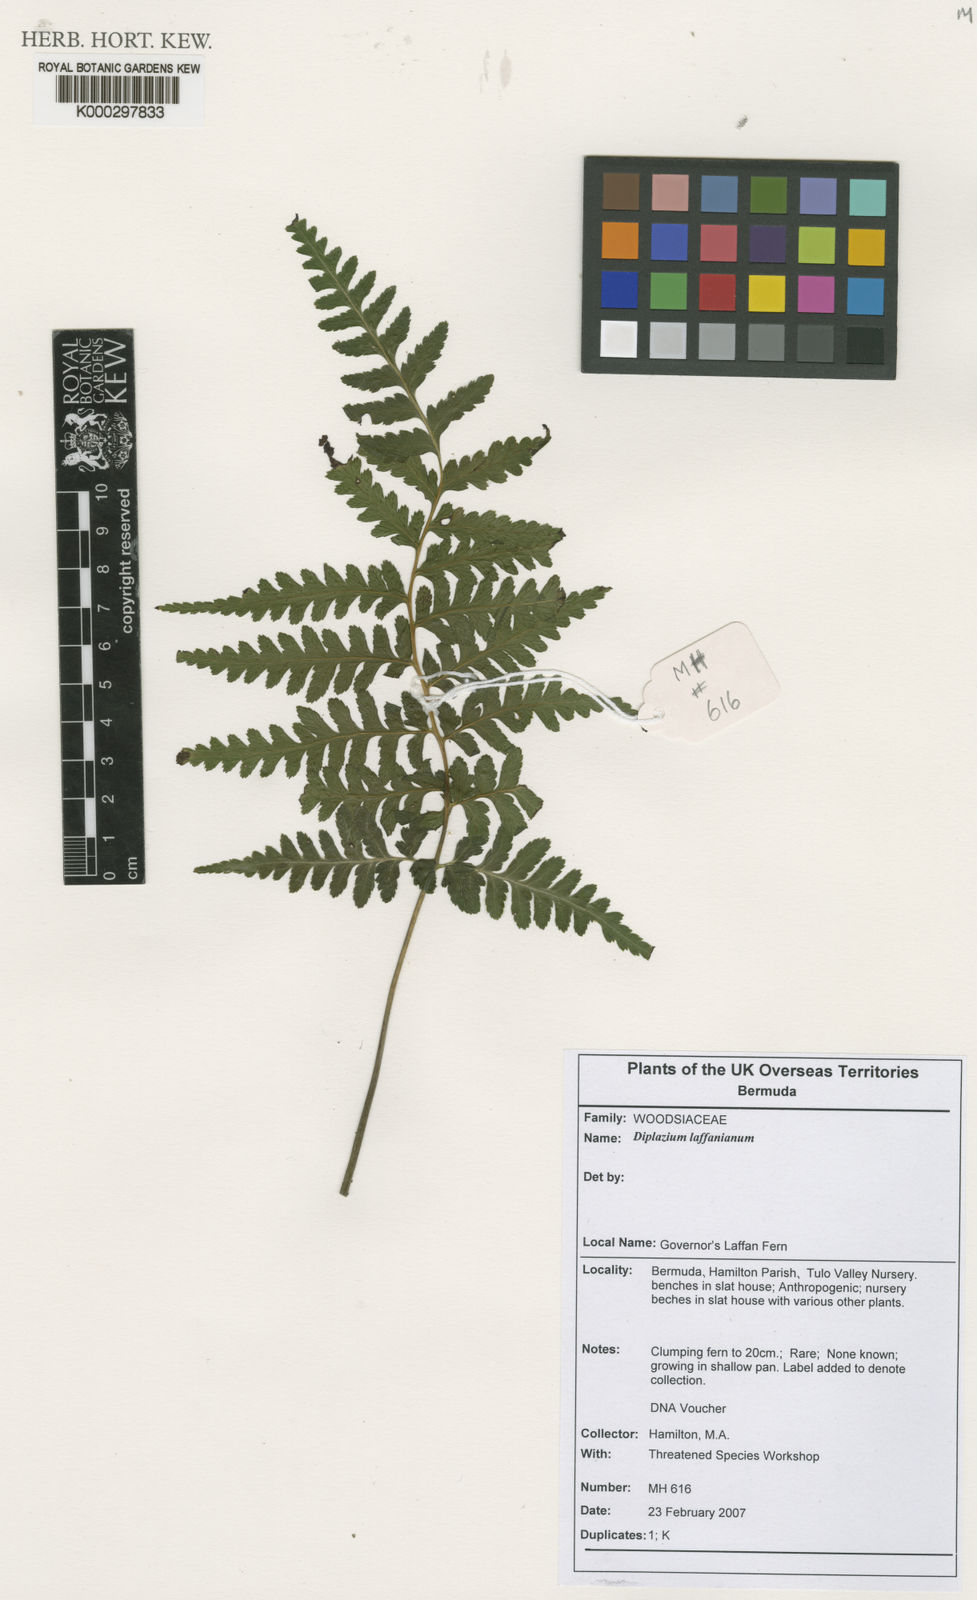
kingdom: Plantae
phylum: Tracheophyta
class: Polypodiopsida
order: Polypodiales
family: Athyriaceae
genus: Diplazium
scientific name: Diplazium laffanianum
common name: Governor laffan's fern
